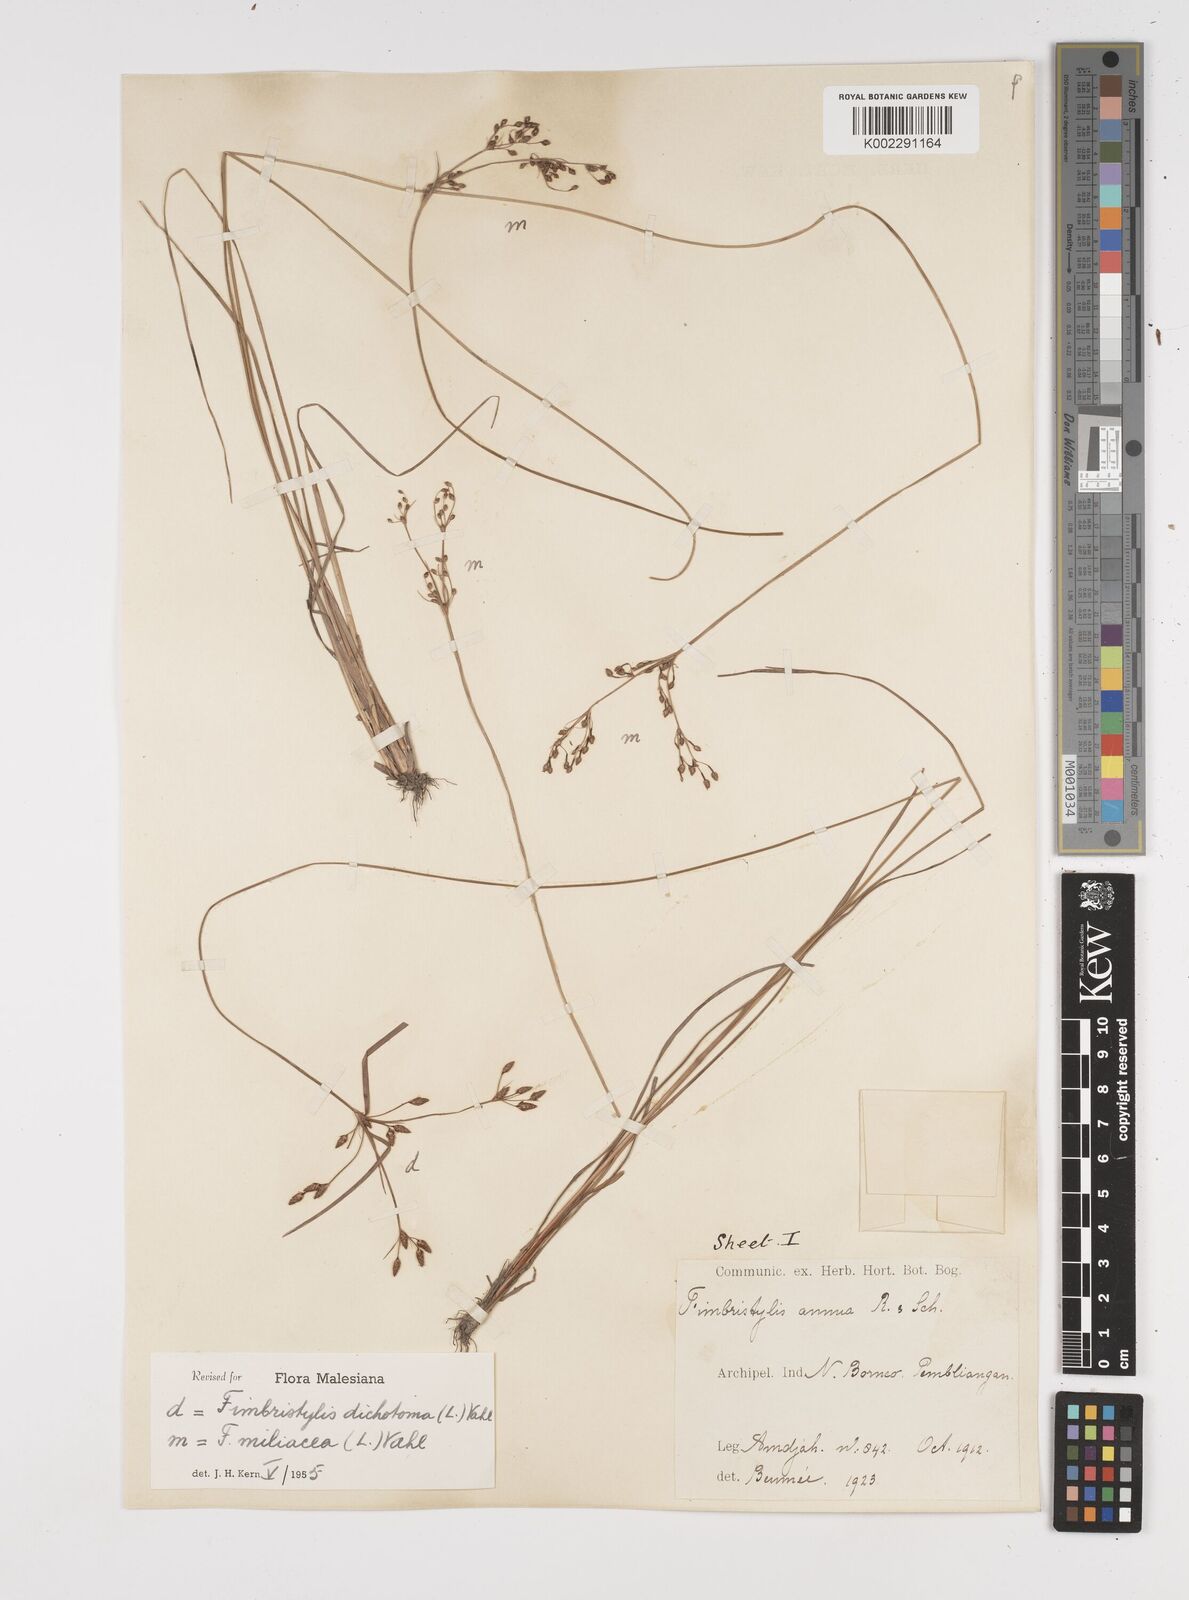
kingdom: Plantae
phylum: Tracheophyta
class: Liliopsida
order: Poales
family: Cyperaceae
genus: Fimbristylis
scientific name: Fimbristylis dichotoma
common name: Forked fimbry
